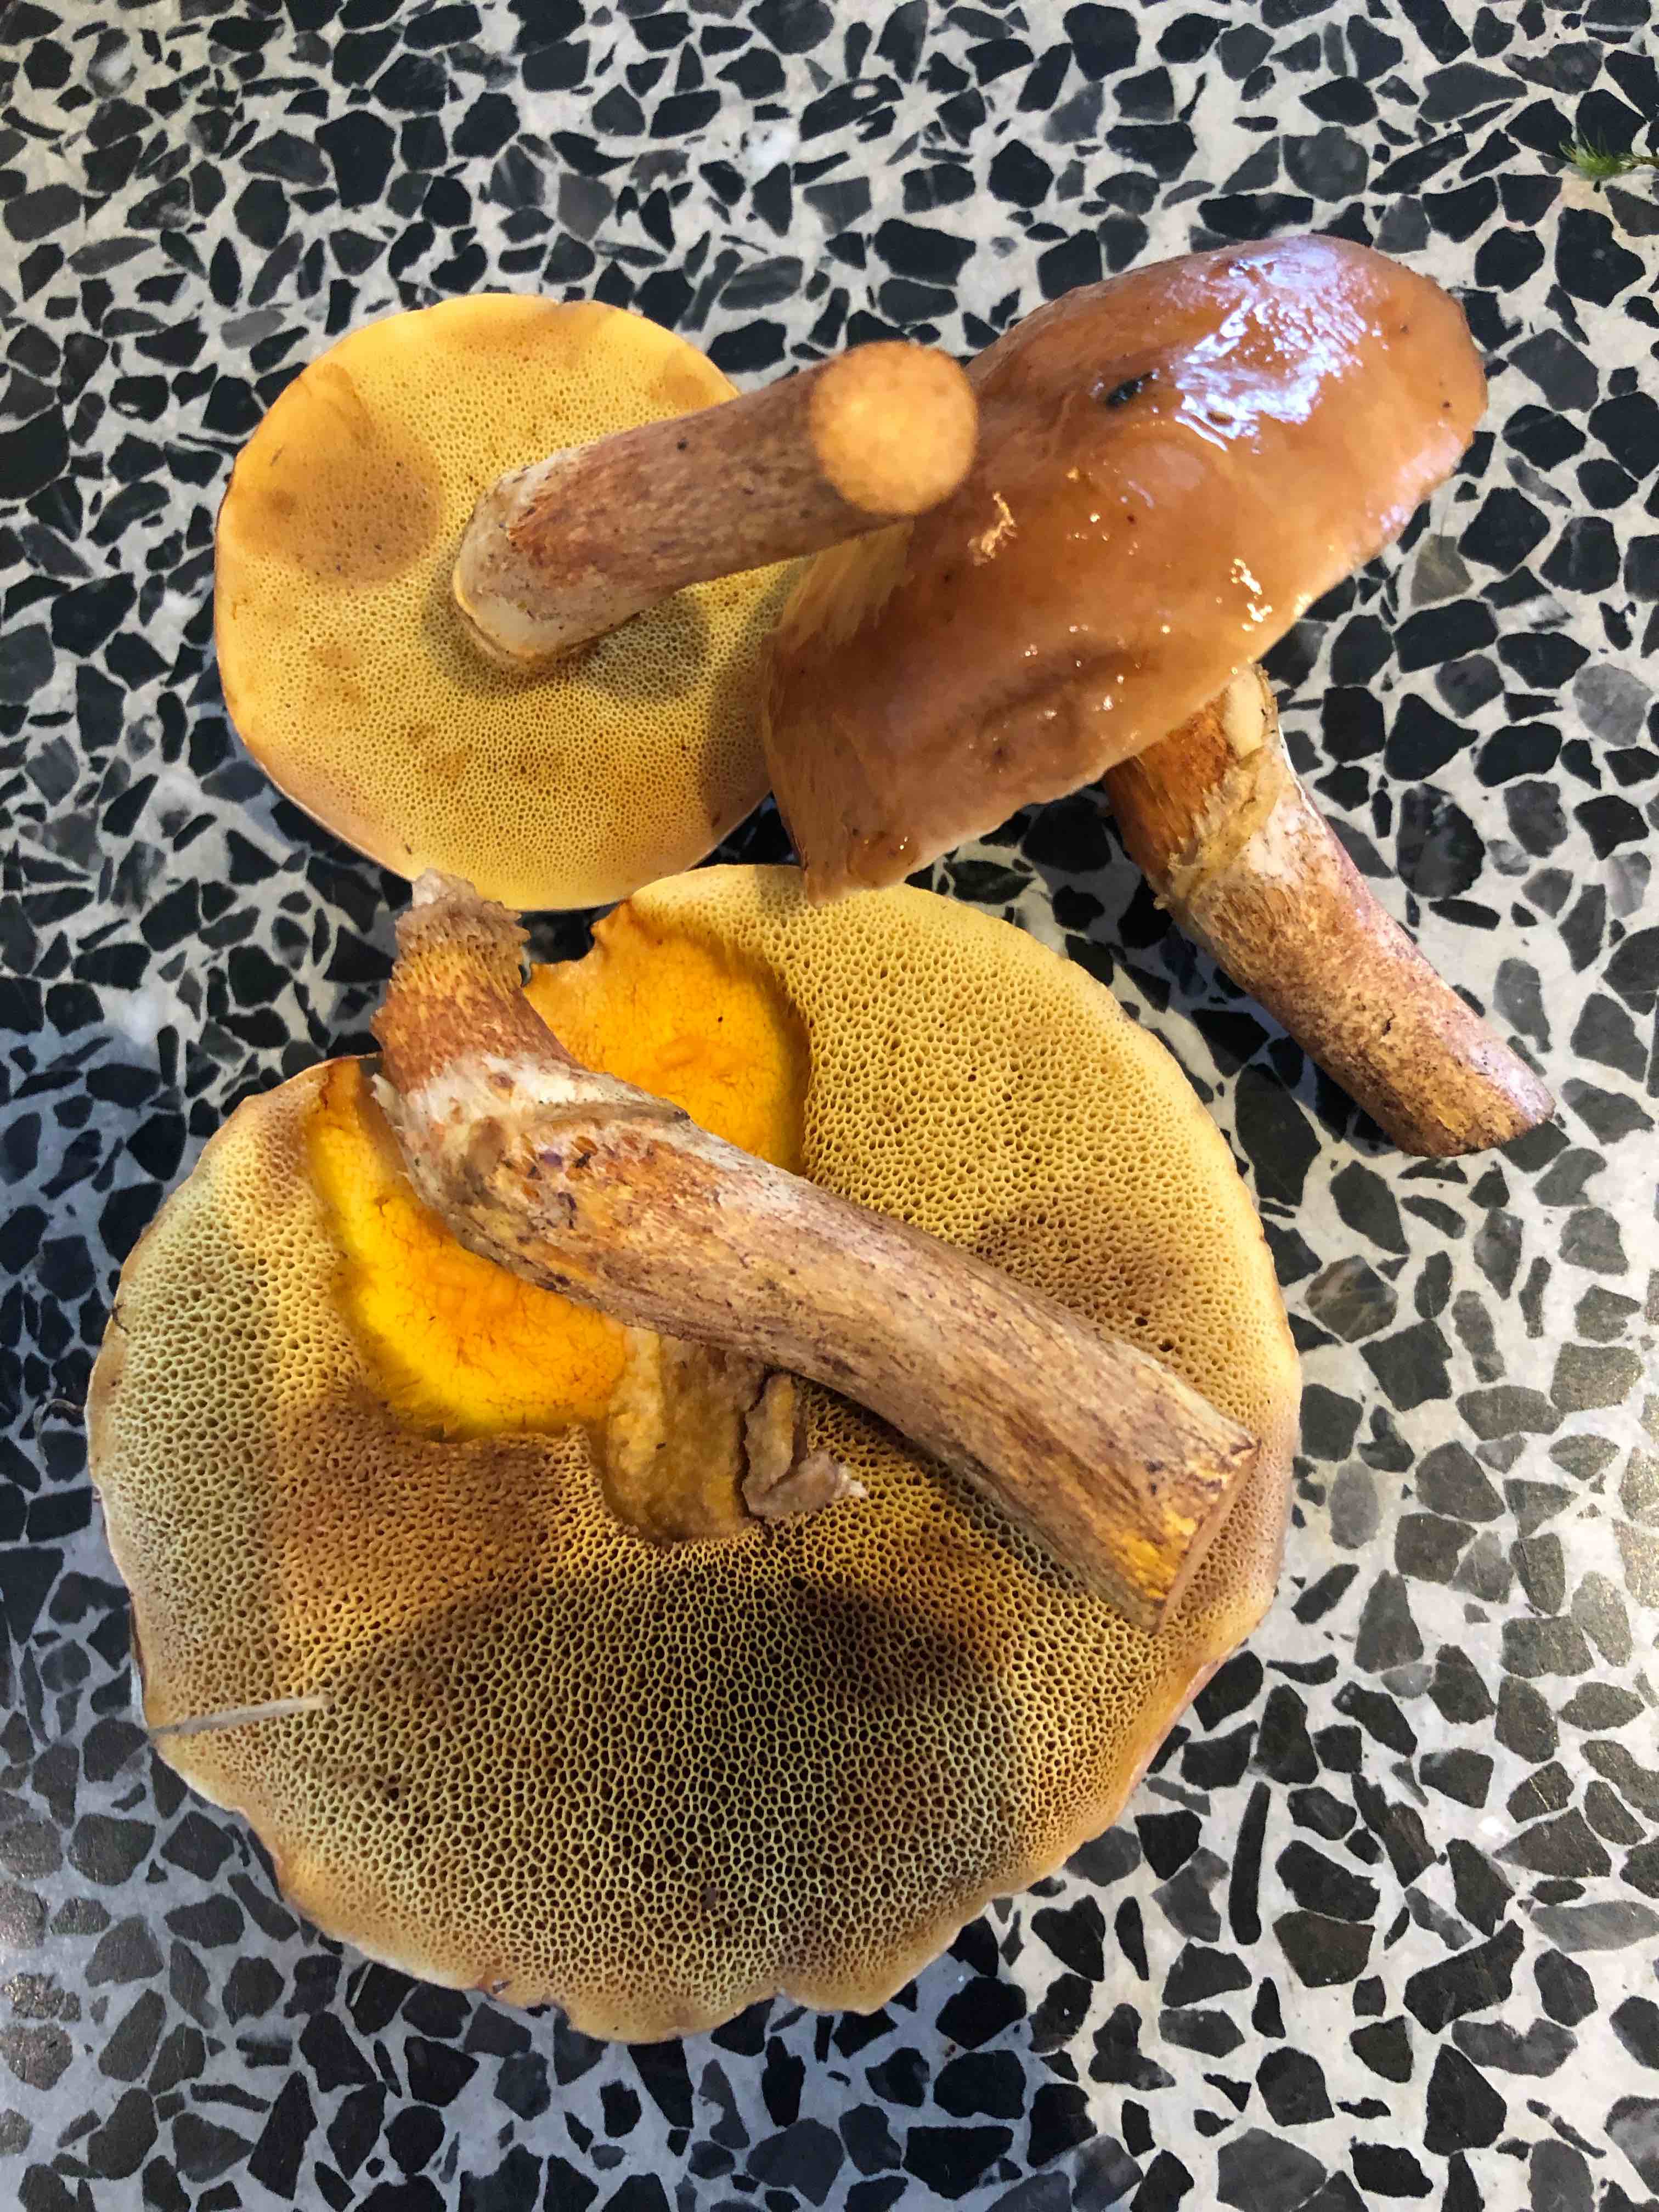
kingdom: Fungi
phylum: Basidiomycota
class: Agaricomycetes
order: Boletales
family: Suillaceae
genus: Suillus
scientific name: Suillus grevillei
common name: lærke-slimrørhat
